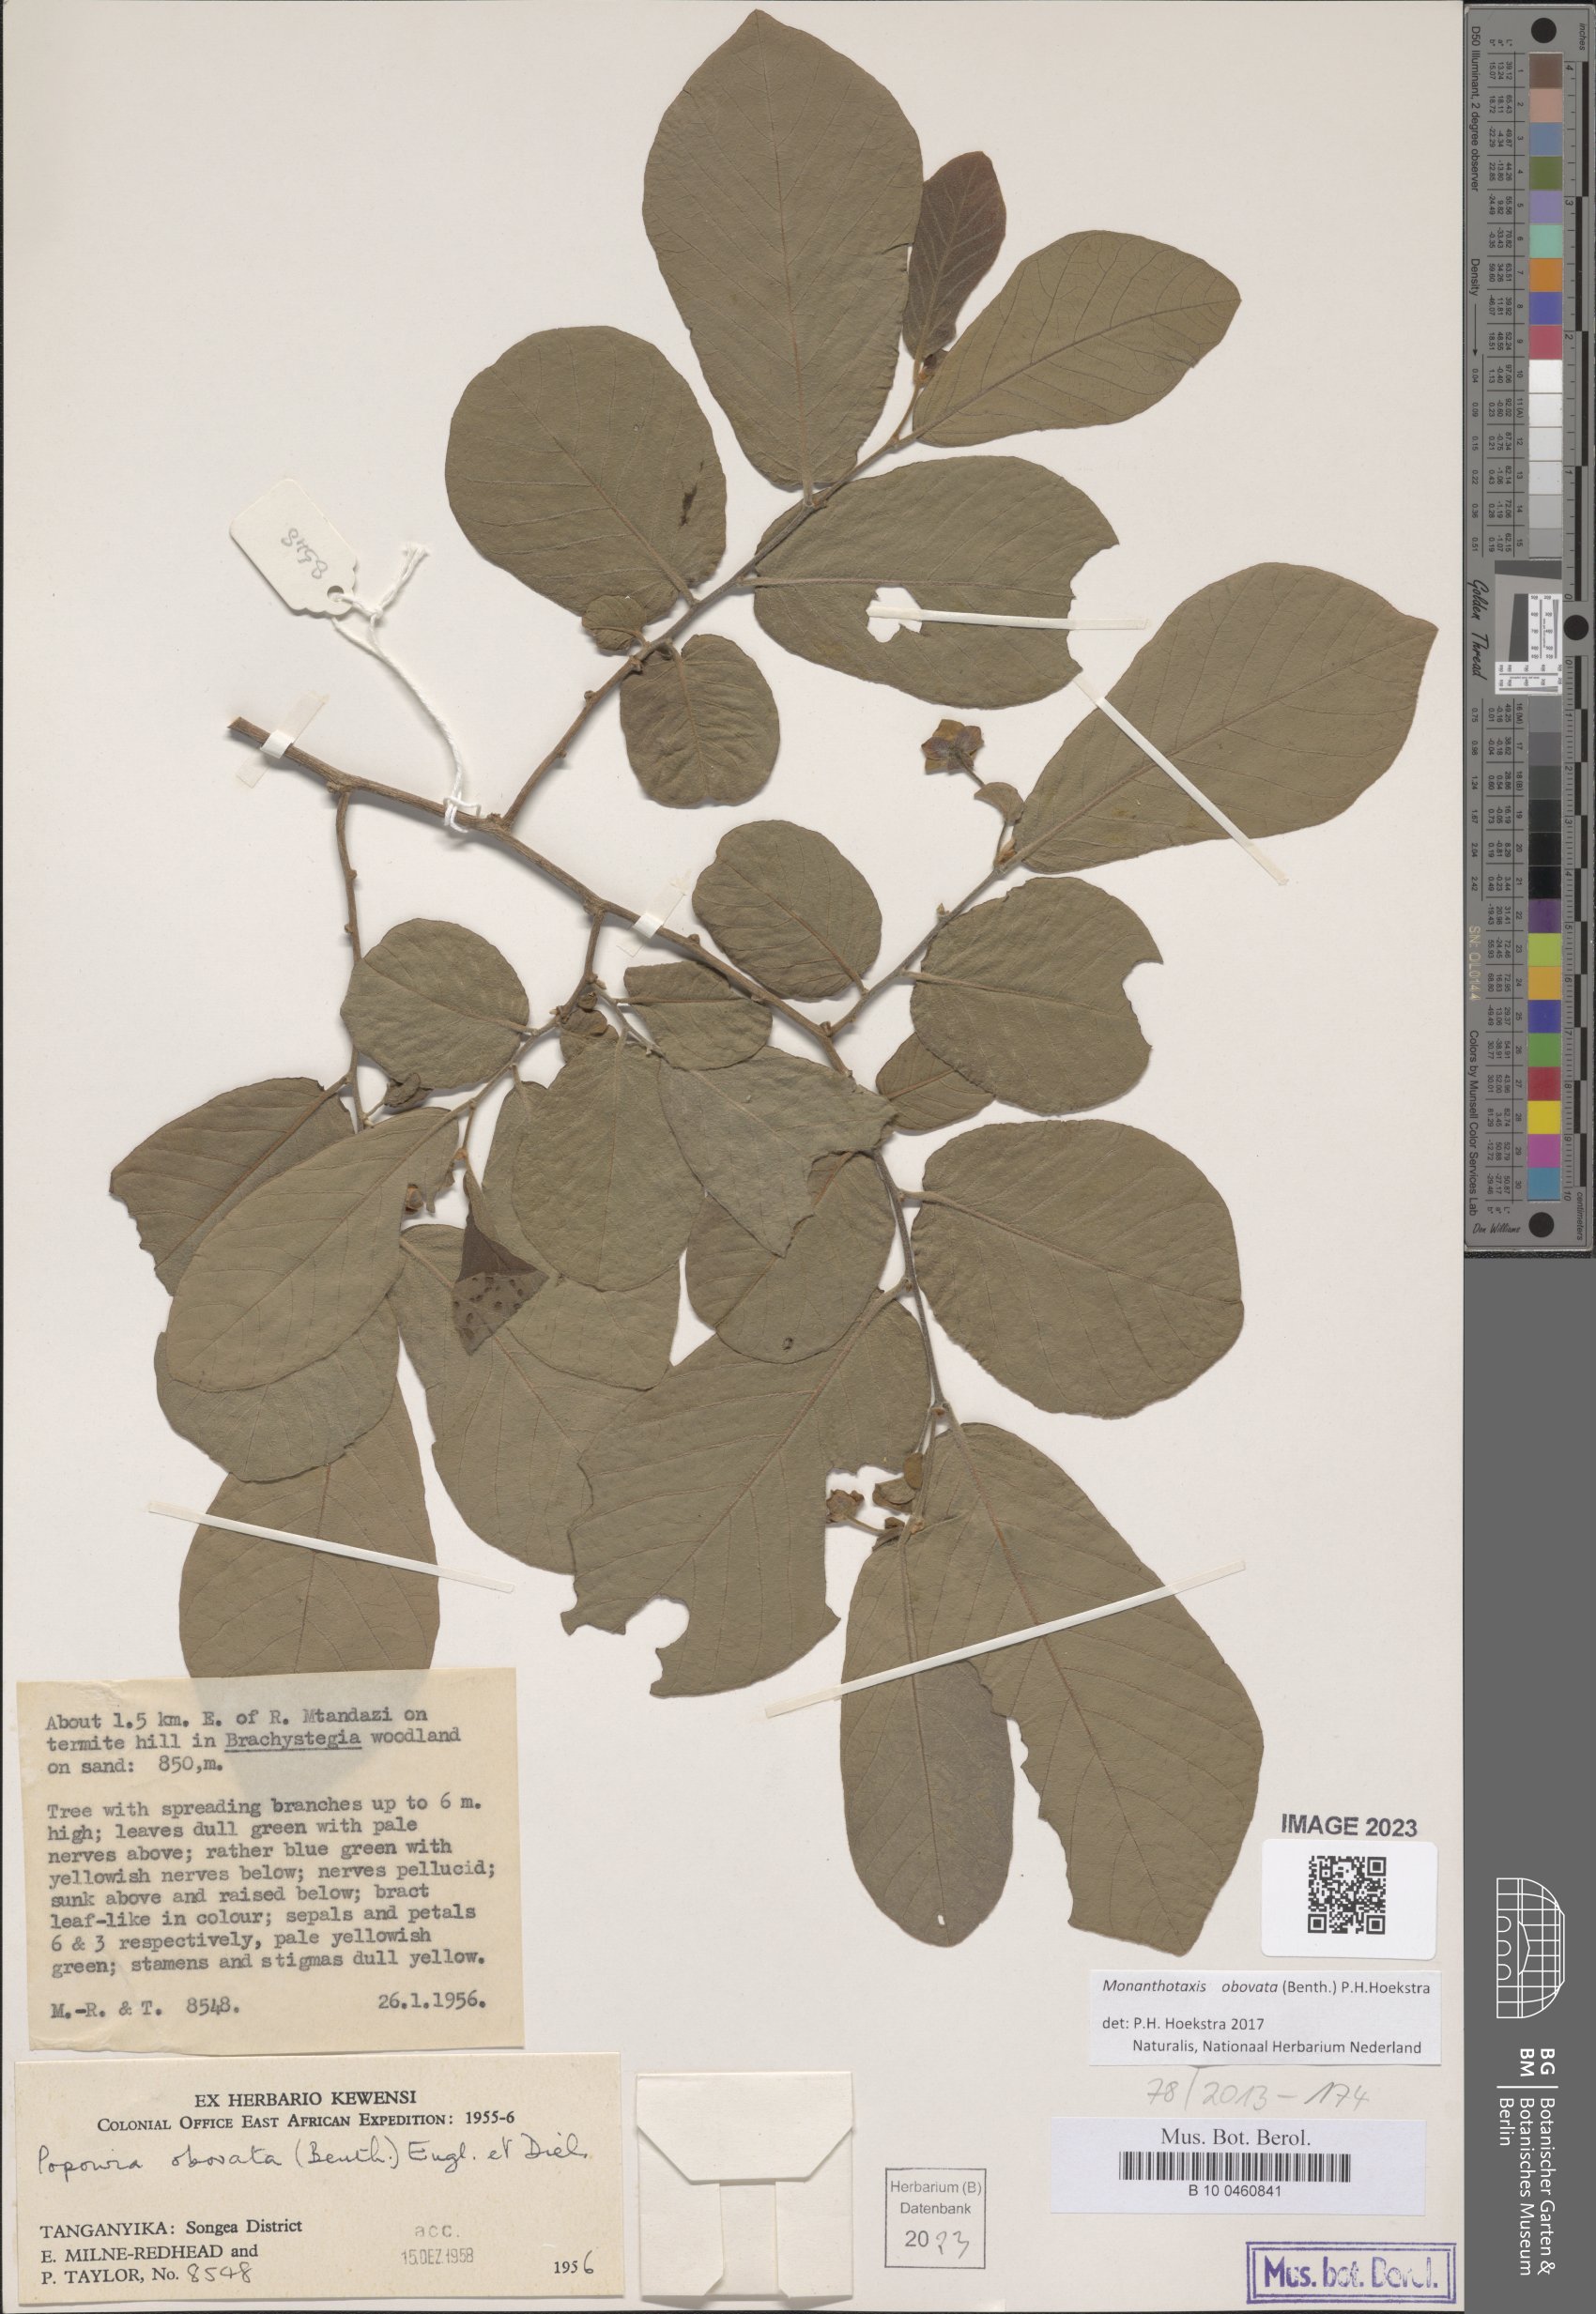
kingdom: Plantae
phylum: Tracheophyta
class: Magnoliopsida
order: Magnoliales
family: Annonaceae
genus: Friesodielsia
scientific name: Friesodielsia obovata
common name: Monkey fingers
